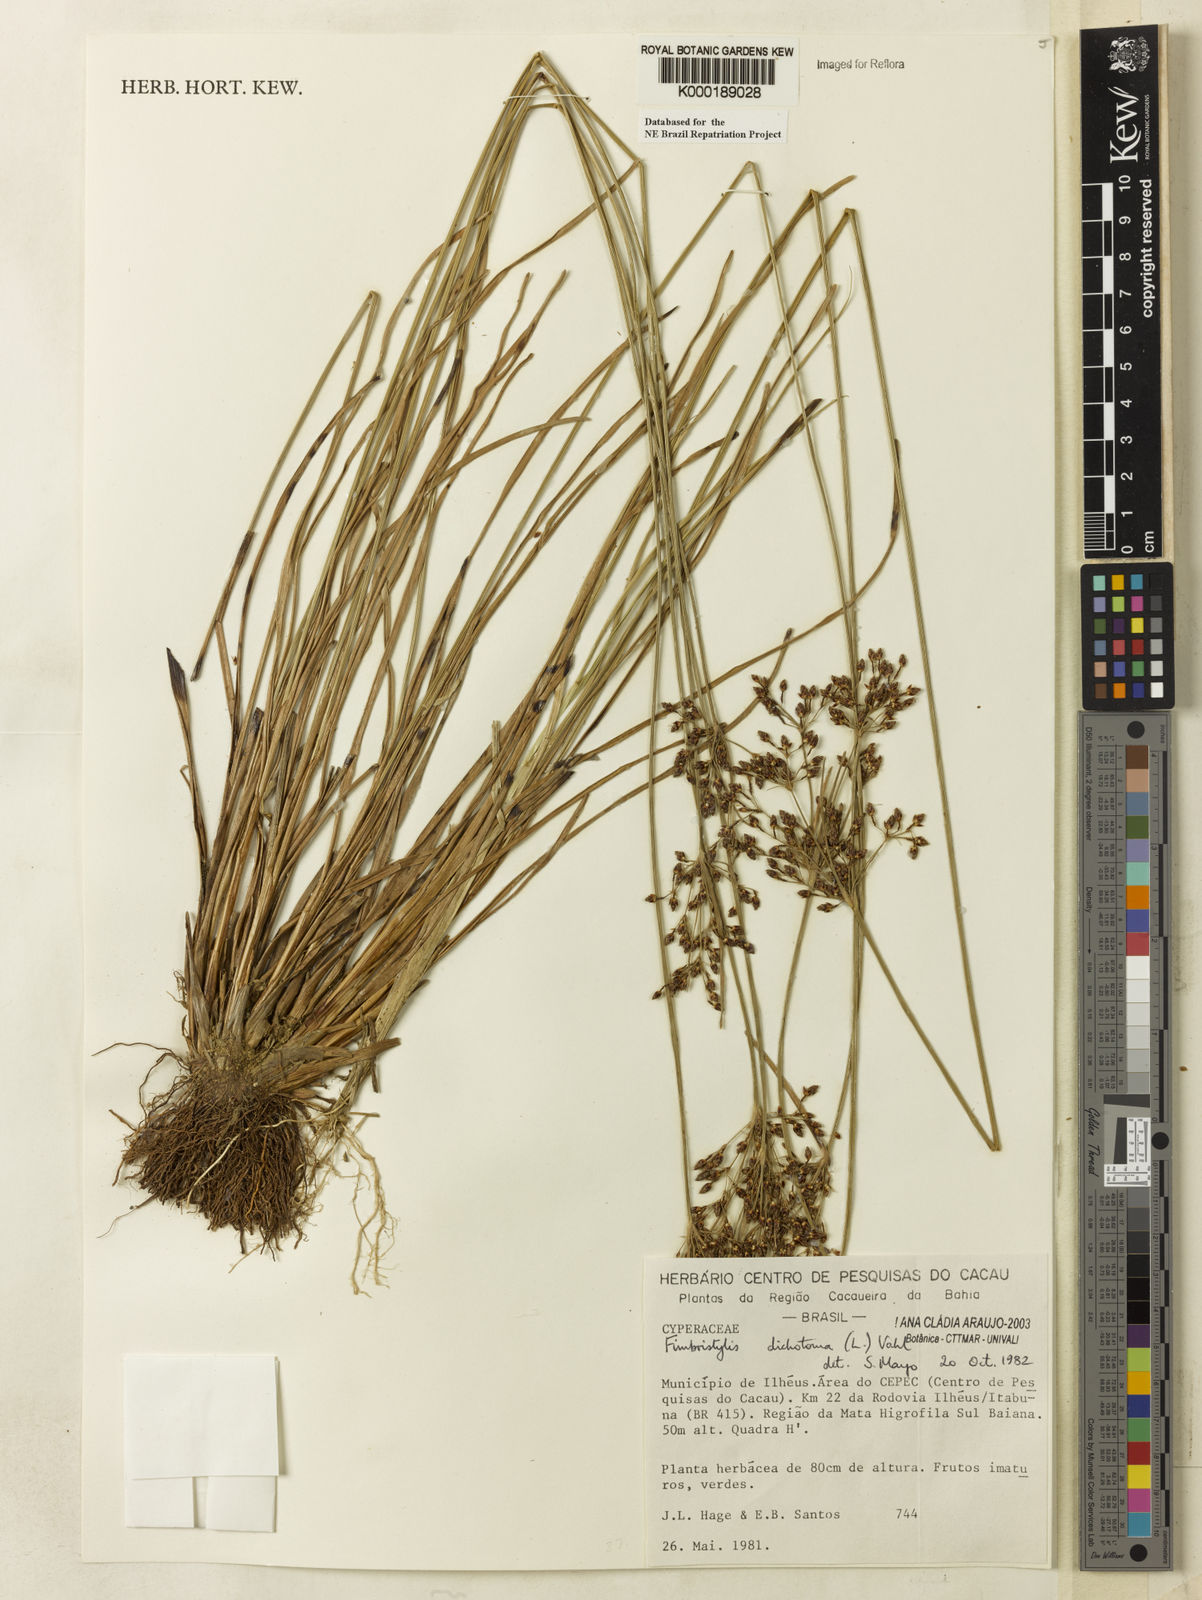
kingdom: Plantae
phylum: Tracheophyta
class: Liliopsida
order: Poales
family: Cyperaceae
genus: Fimbristylis
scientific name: Fimbristylis dichotoma
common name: Forked fimbry
